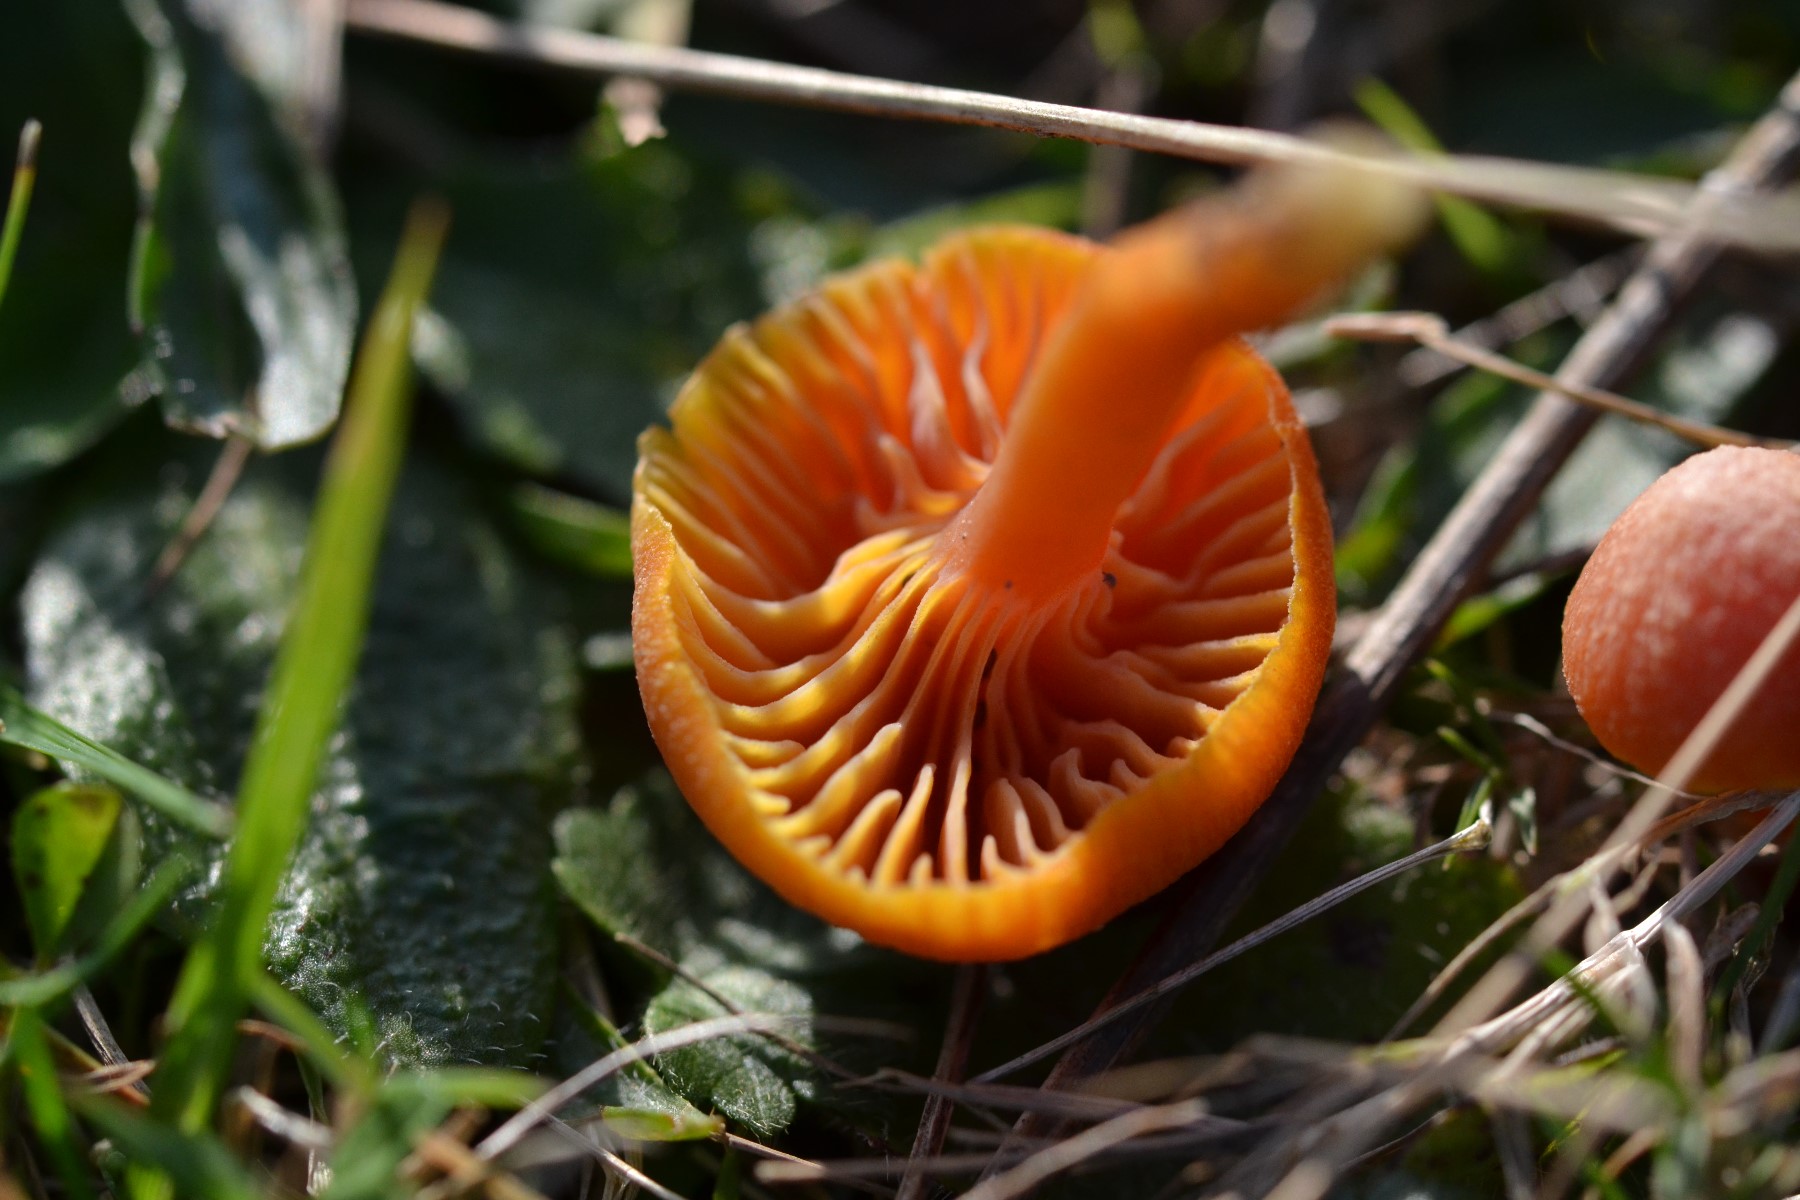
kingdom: Fungi
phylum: Basidiomycota
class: Agaricomycetes
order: Agaricales
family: Hygrophoraceae
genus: Hygrocybe
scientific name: Hygrocybe miniata
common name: mønje-vokshat
